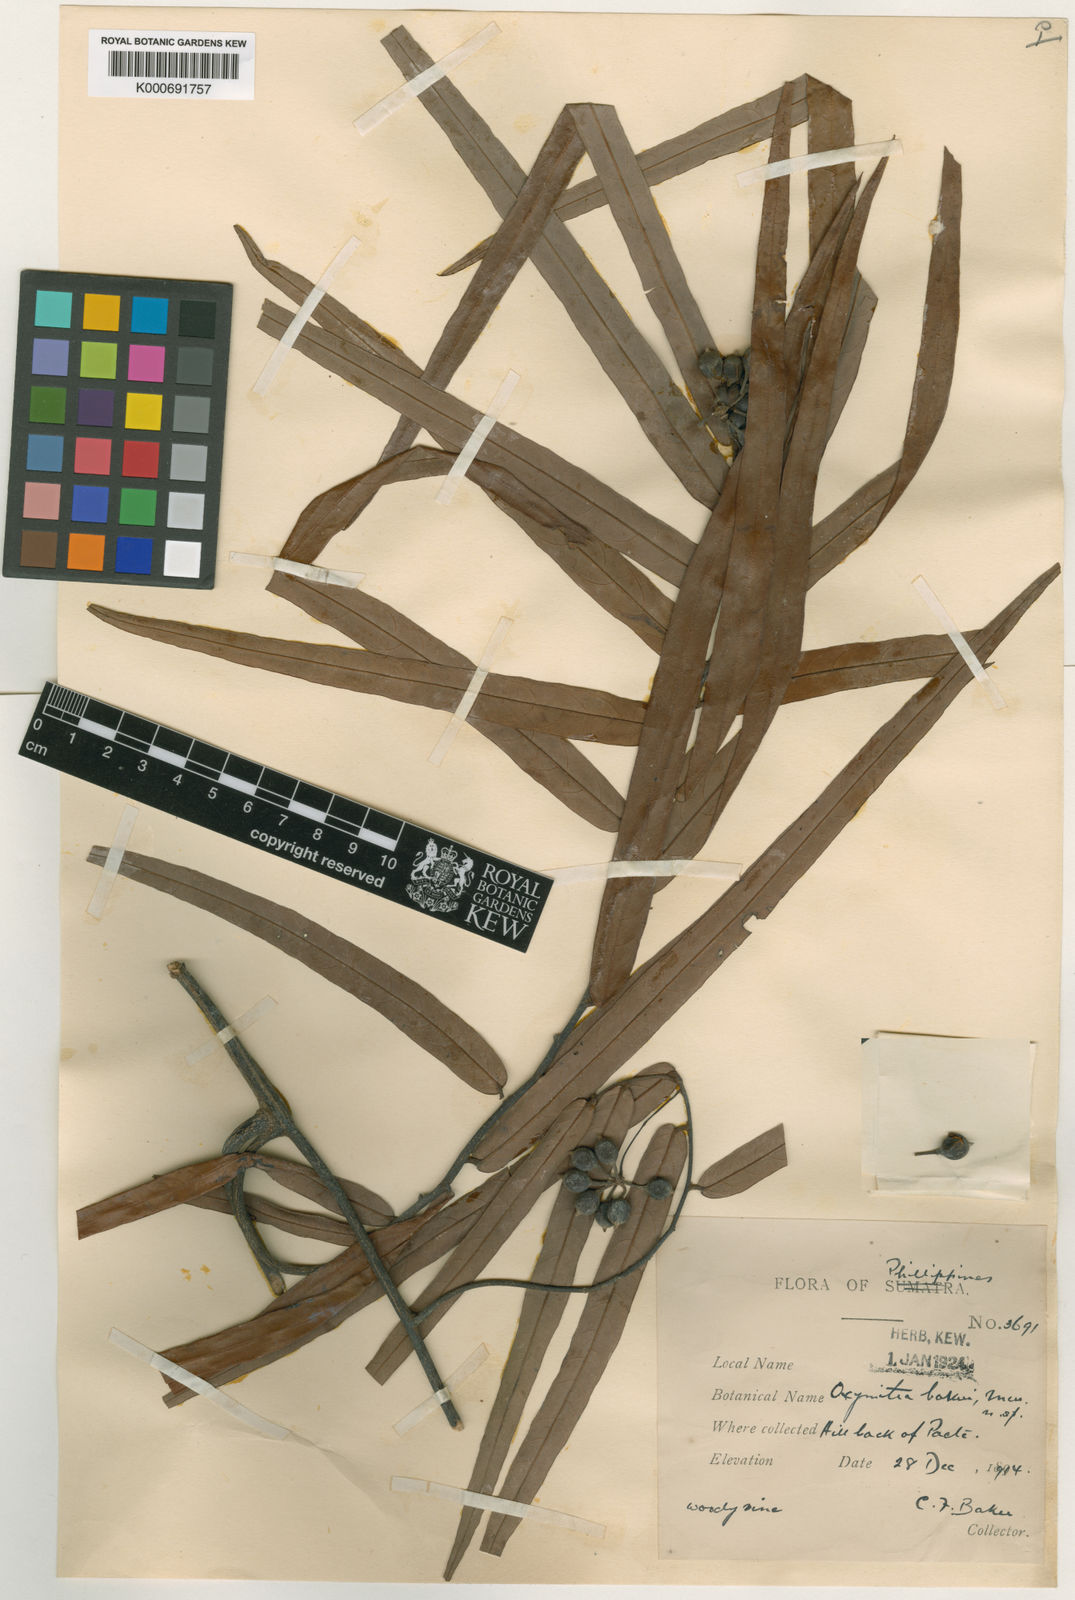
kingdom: Plantae
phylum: Tracheophyta
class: Magnoliopsida
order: Magnoliales
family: Annonaceae
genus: Friesodielsia
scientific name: Friesodielsia bakeri
